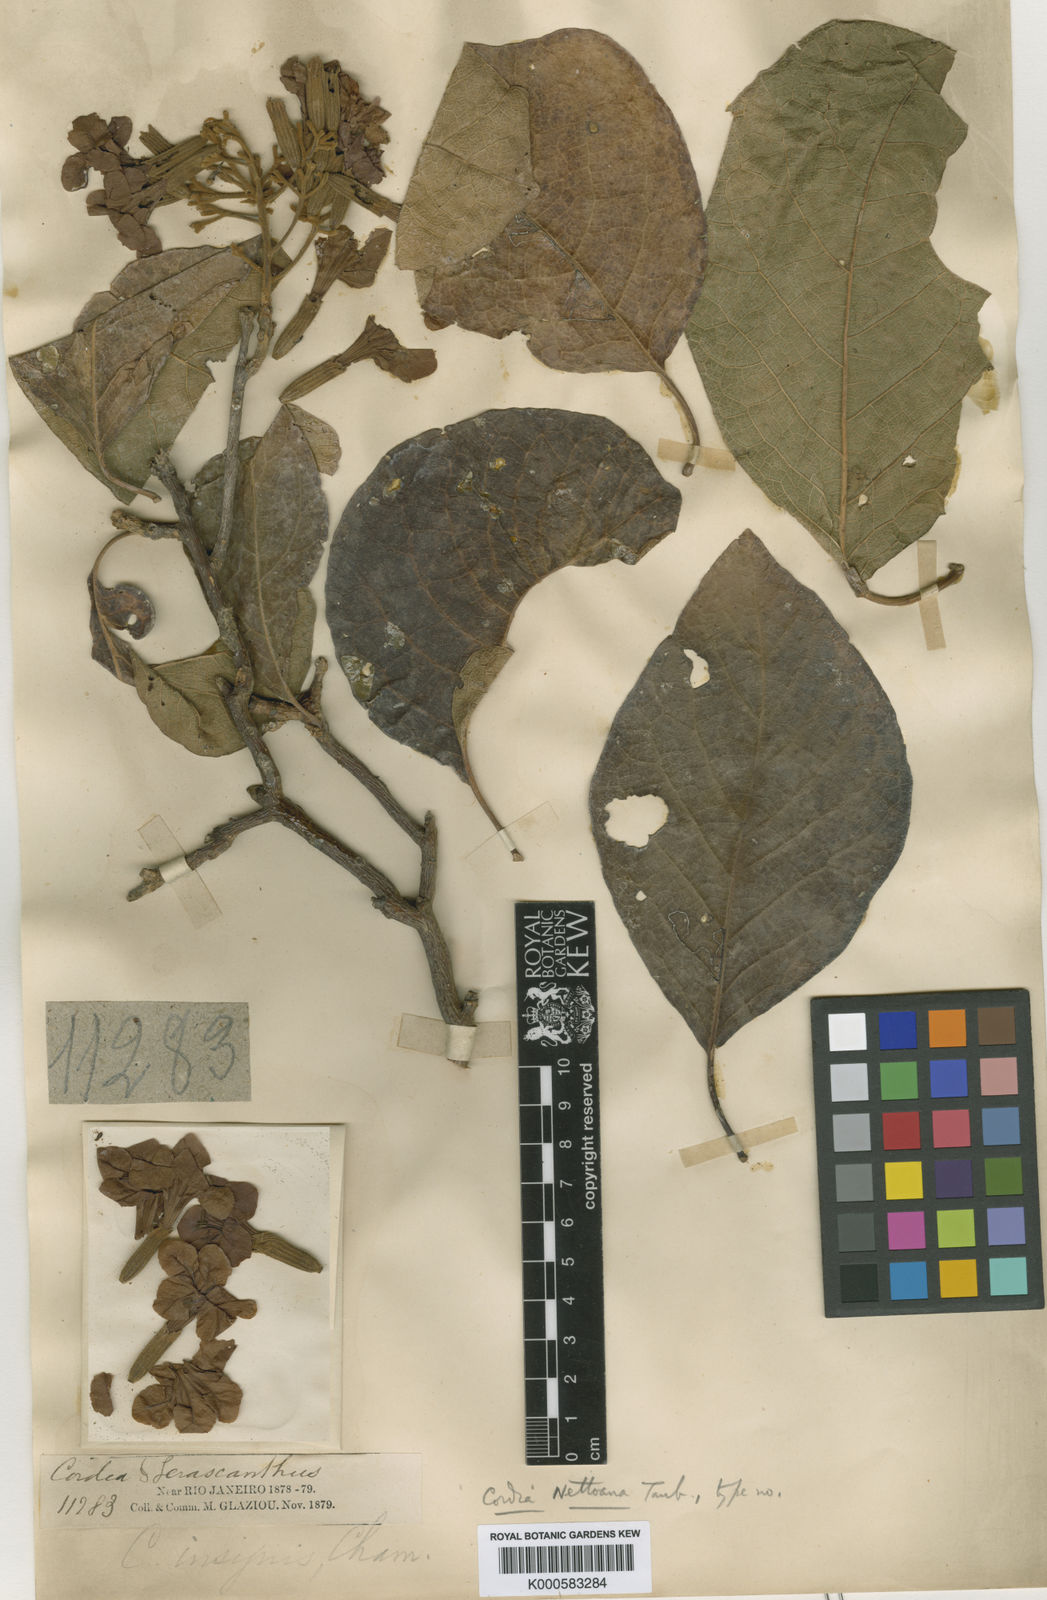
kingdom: Plantae
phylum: Tracheophyta
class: Magnoliopsida
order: Boraginales
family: Cordiaceae
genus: Cordia
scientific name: Cordia insignis
